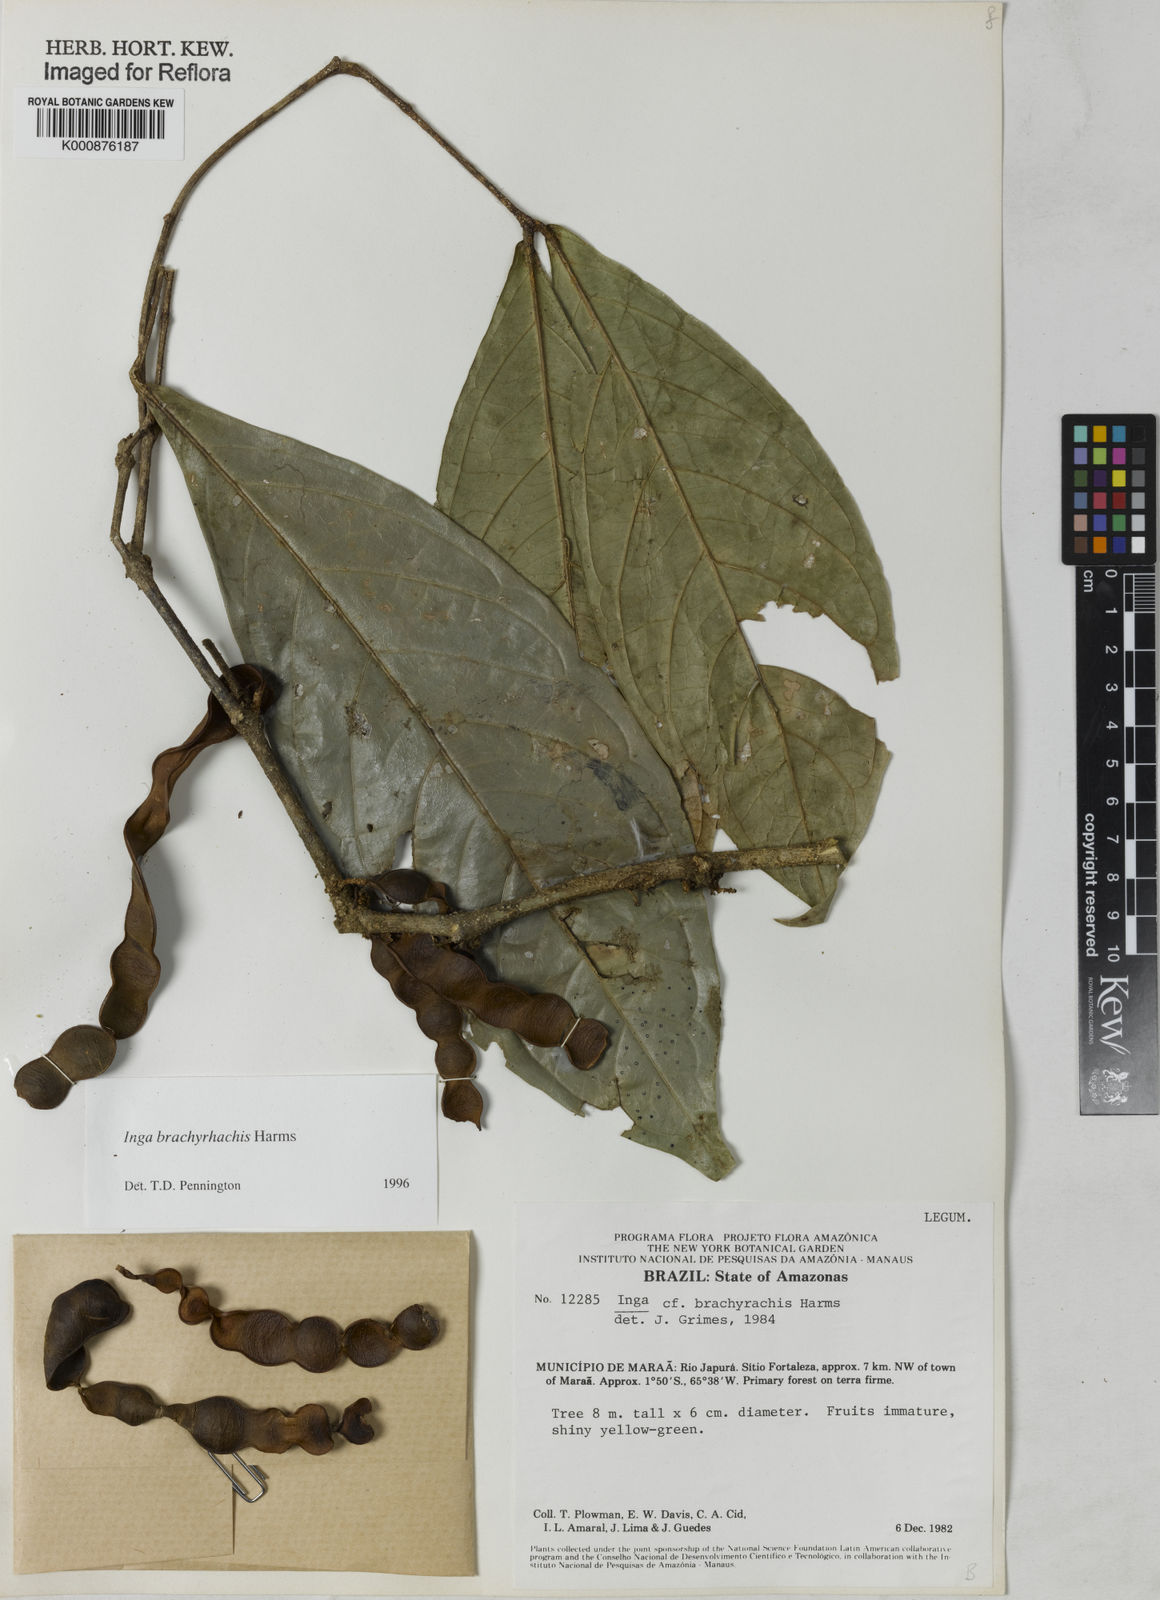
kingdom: Plantae
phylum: Tracheophyta
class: Magnoliopsida
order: Fabales
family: Fabaceae
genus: Inga
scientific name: Inga brachyrhachis
